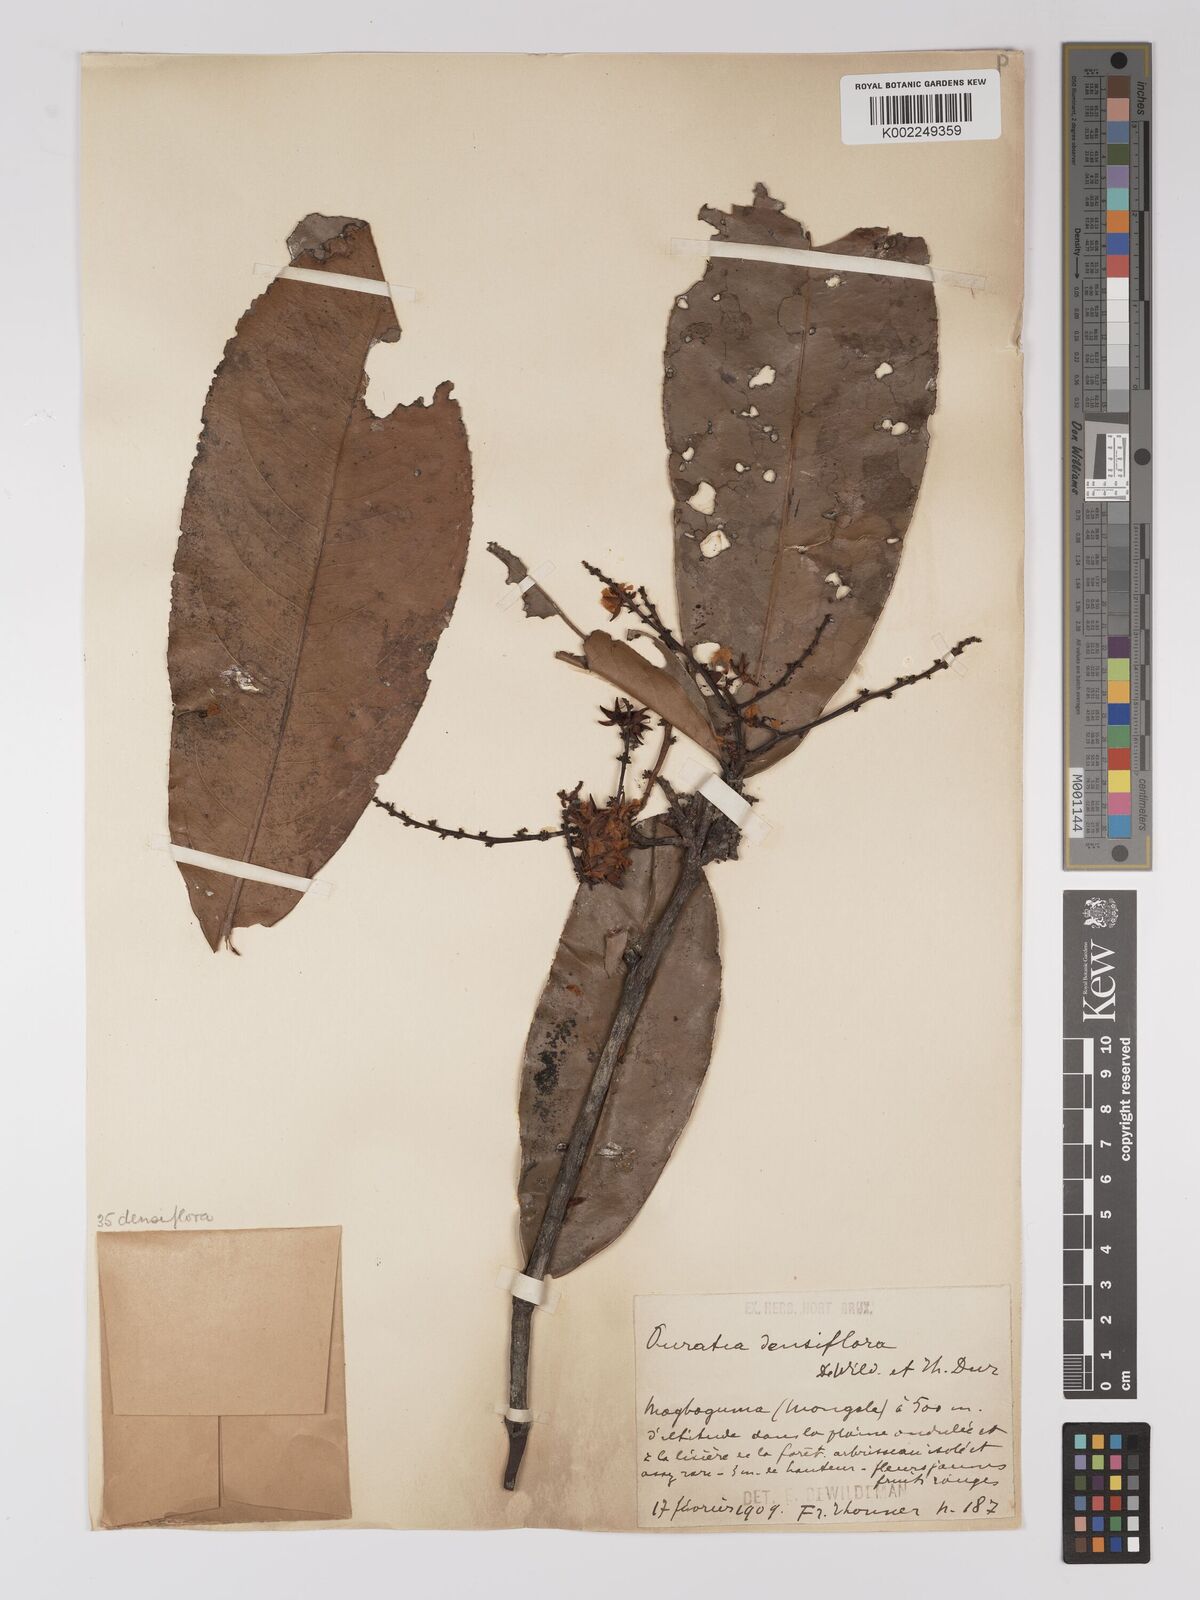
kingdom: Plantae
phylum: Tracheophyta
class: Magnoliopsida
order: Malpighiales
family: Ochnaceae
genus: Gomphia
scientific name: Gomphia densiflora
